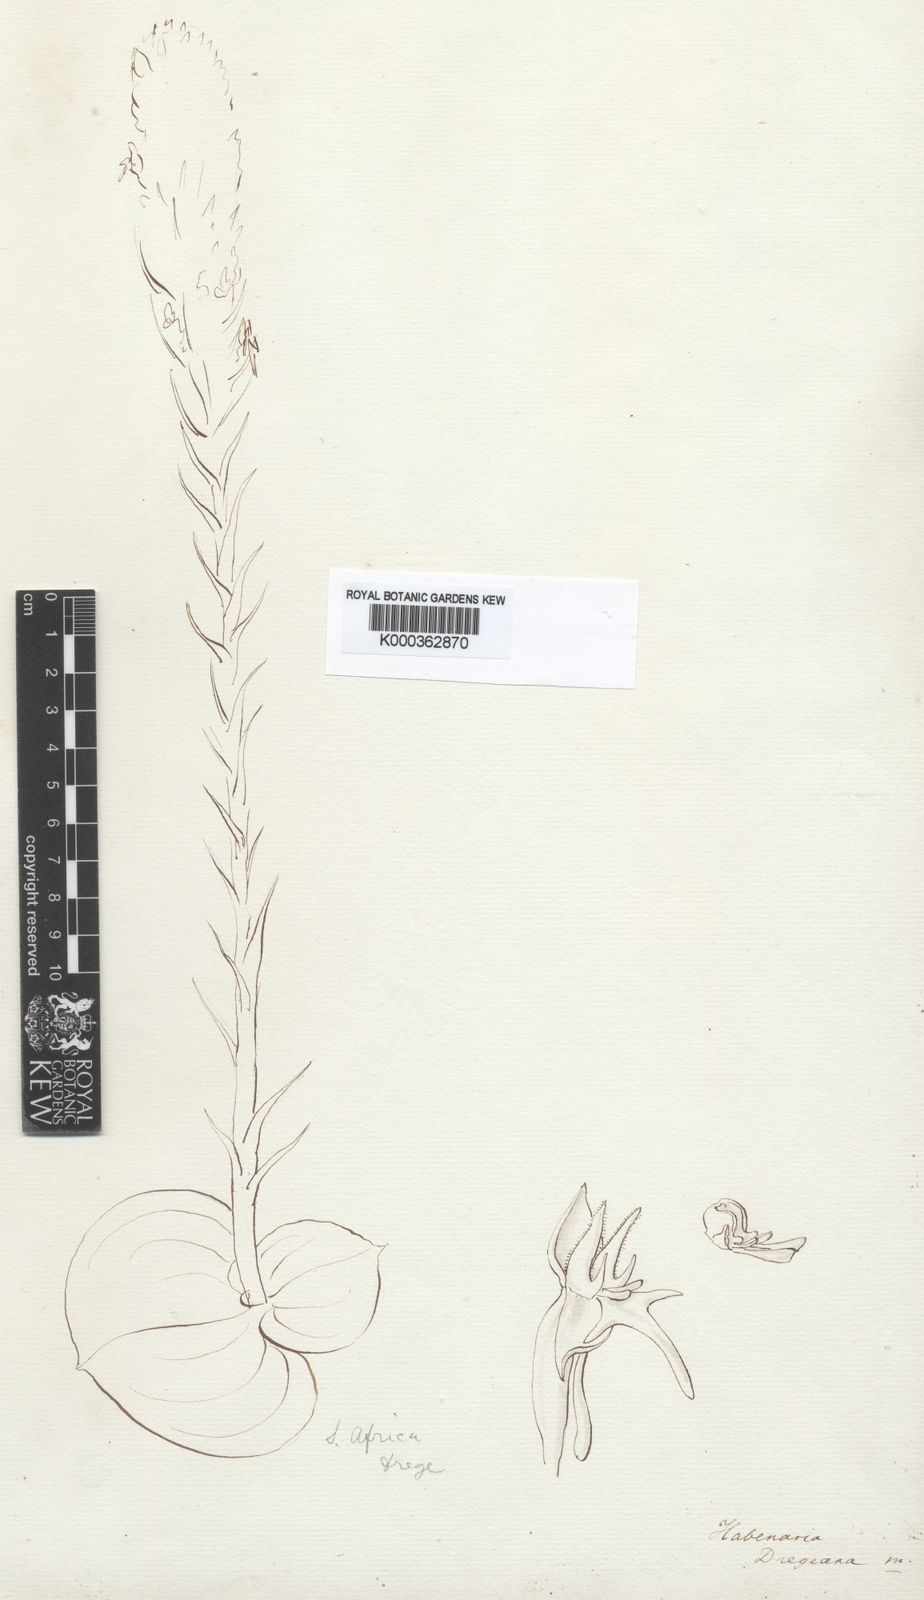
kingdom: Plantae
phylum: Tracheophyta
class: Liliopsida
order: Asparagales
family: Orchidaceae
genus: Habenaria
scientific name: Habenaria dregeana
